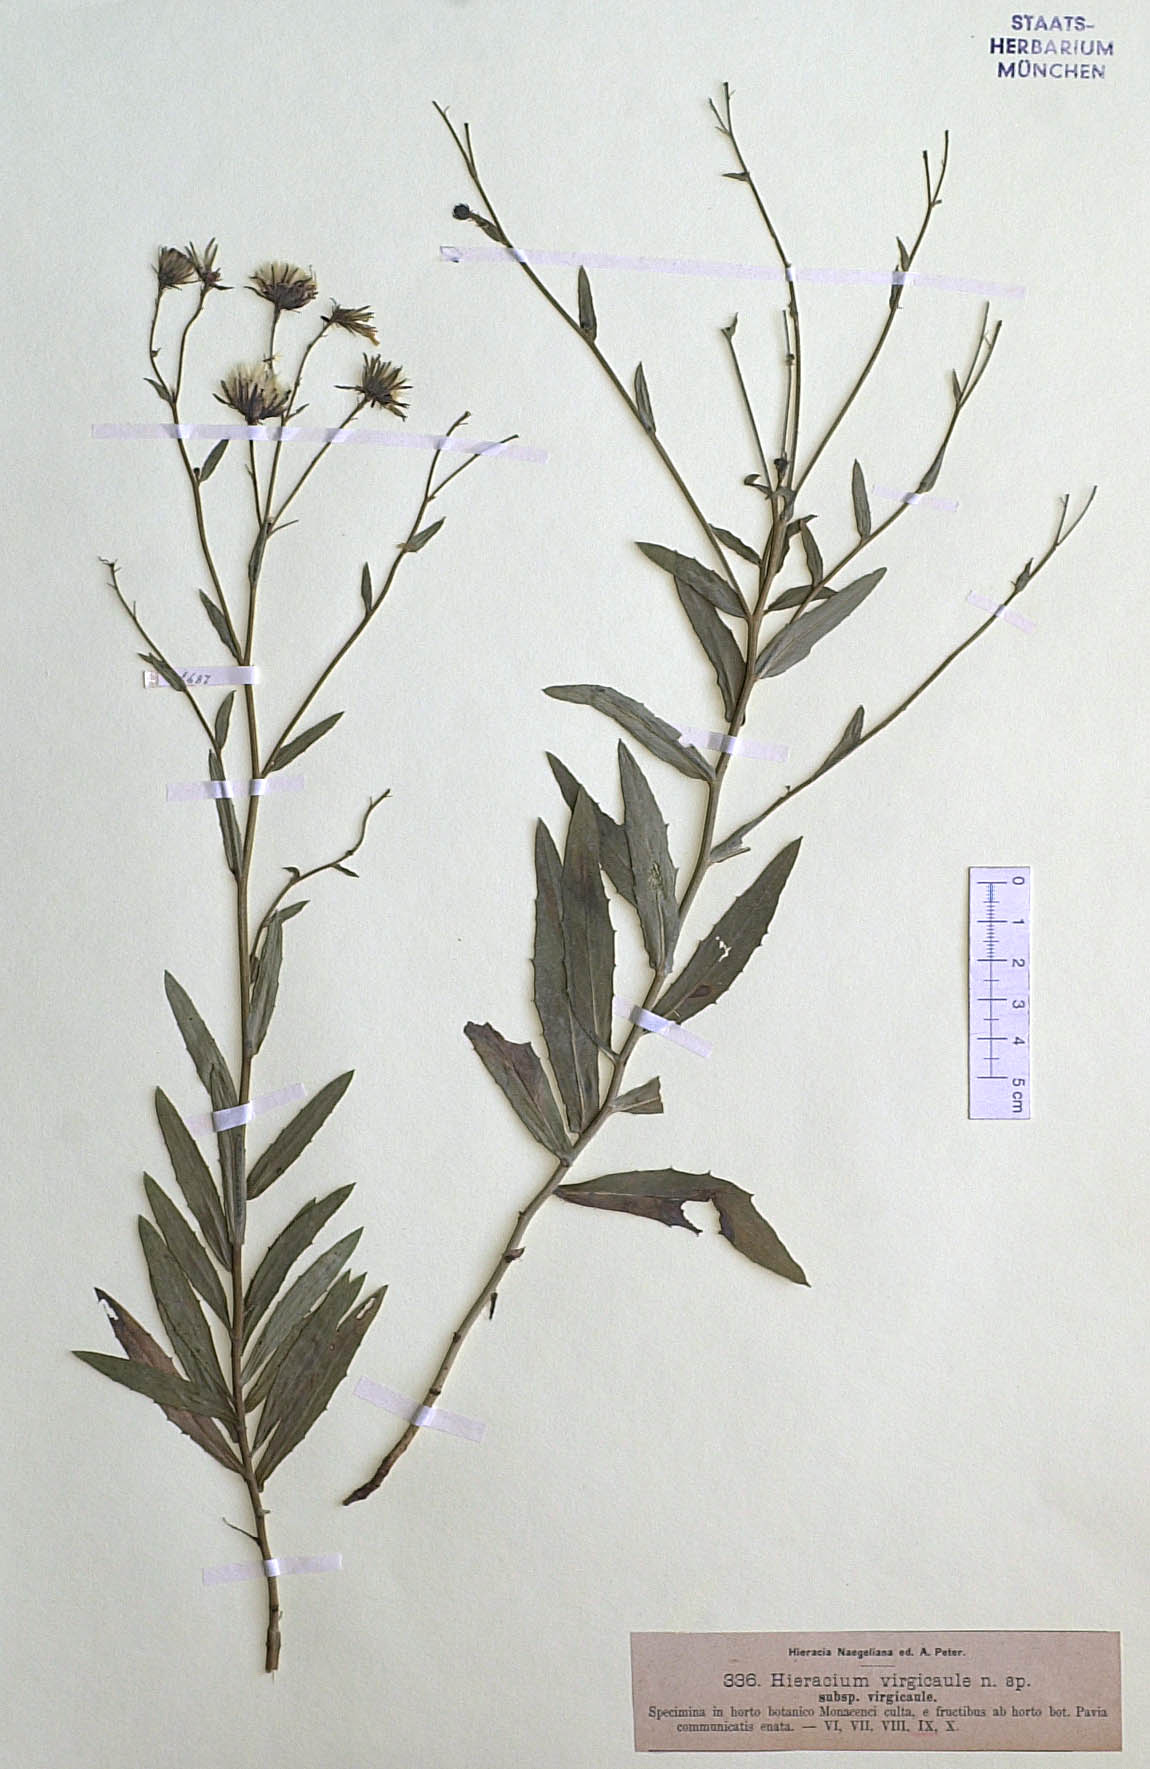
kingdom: Plantae
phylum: Tracheophyta
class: Magnoliopsida
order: Asterales
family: Asteraceae
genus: Hieracium
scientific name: Hieracium virgicaule
